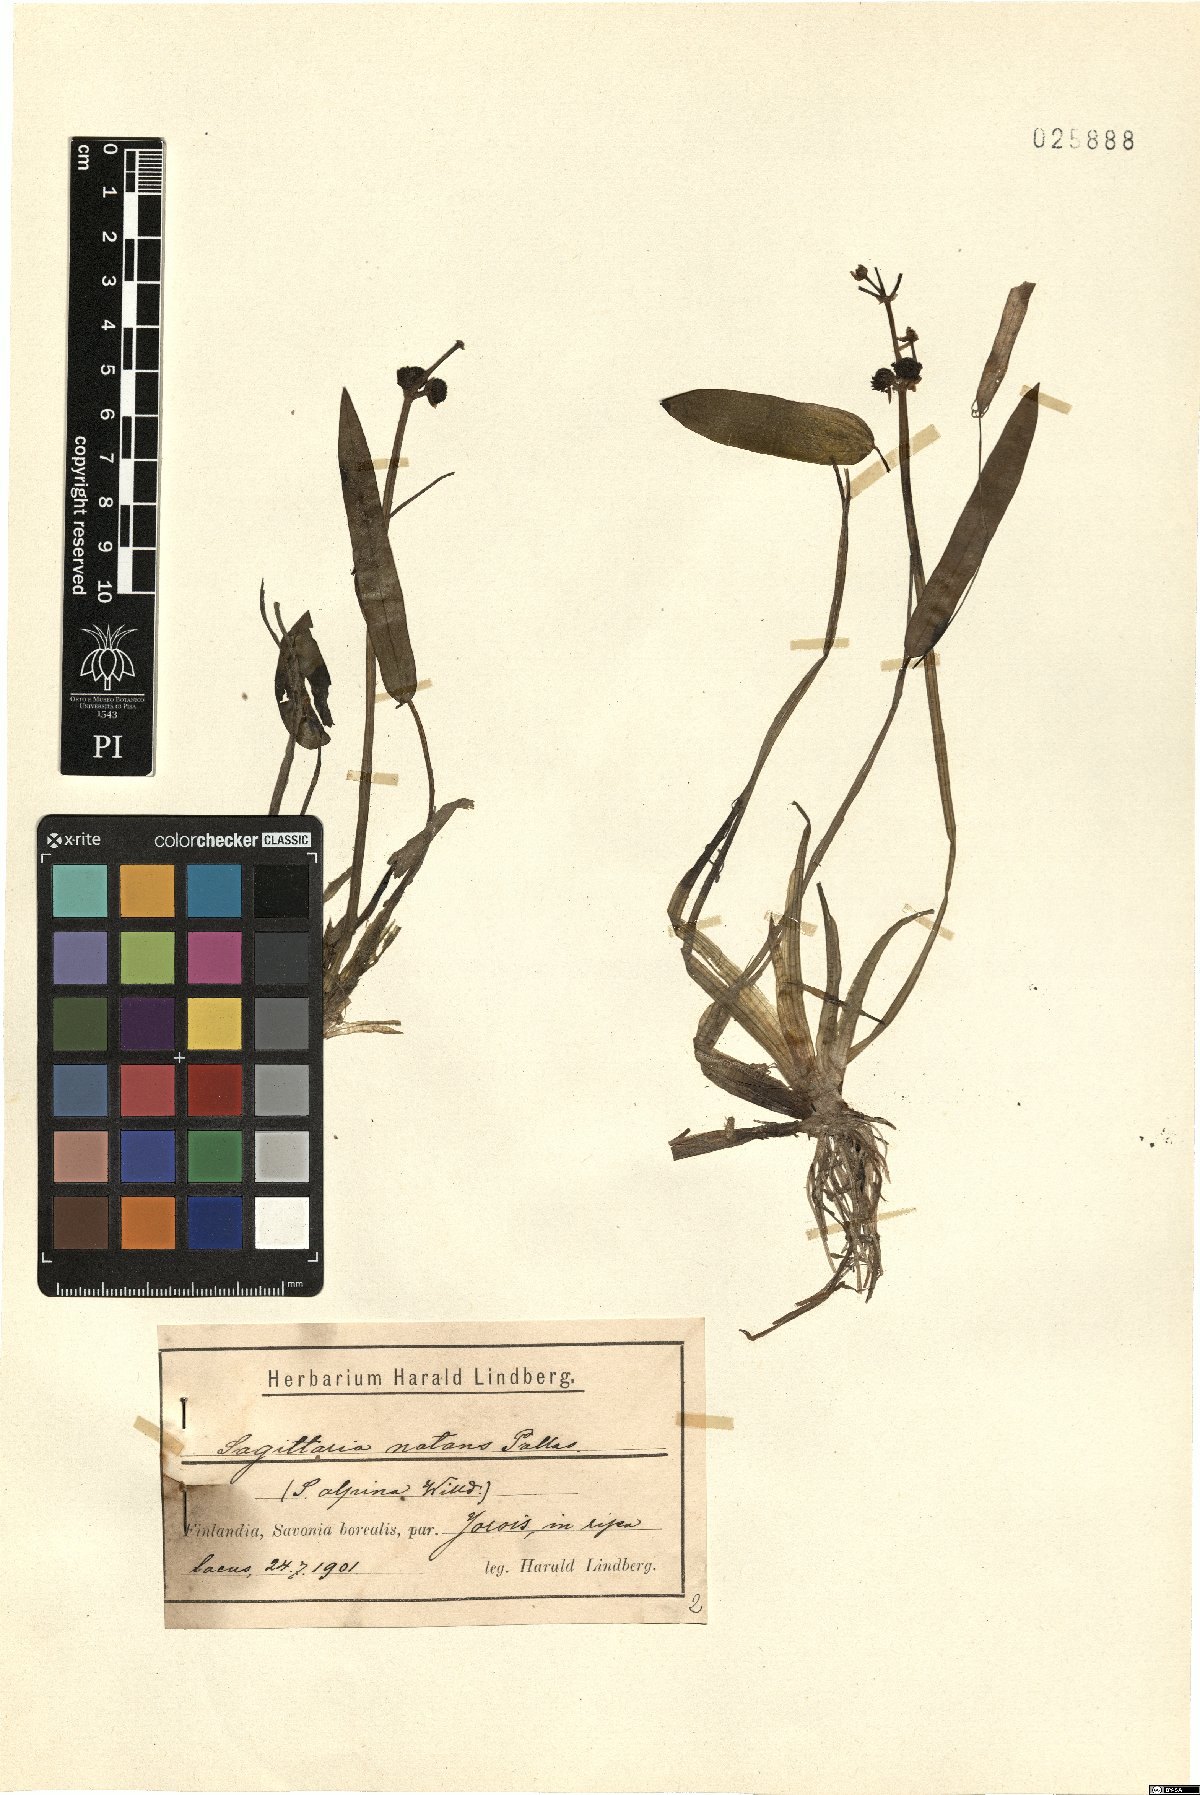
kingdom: Plantae
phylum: Tracheophyta
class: Liliopsida
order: Alismatales
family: Alismataceae
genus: Sagittaria
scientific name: Sagittaria natans
